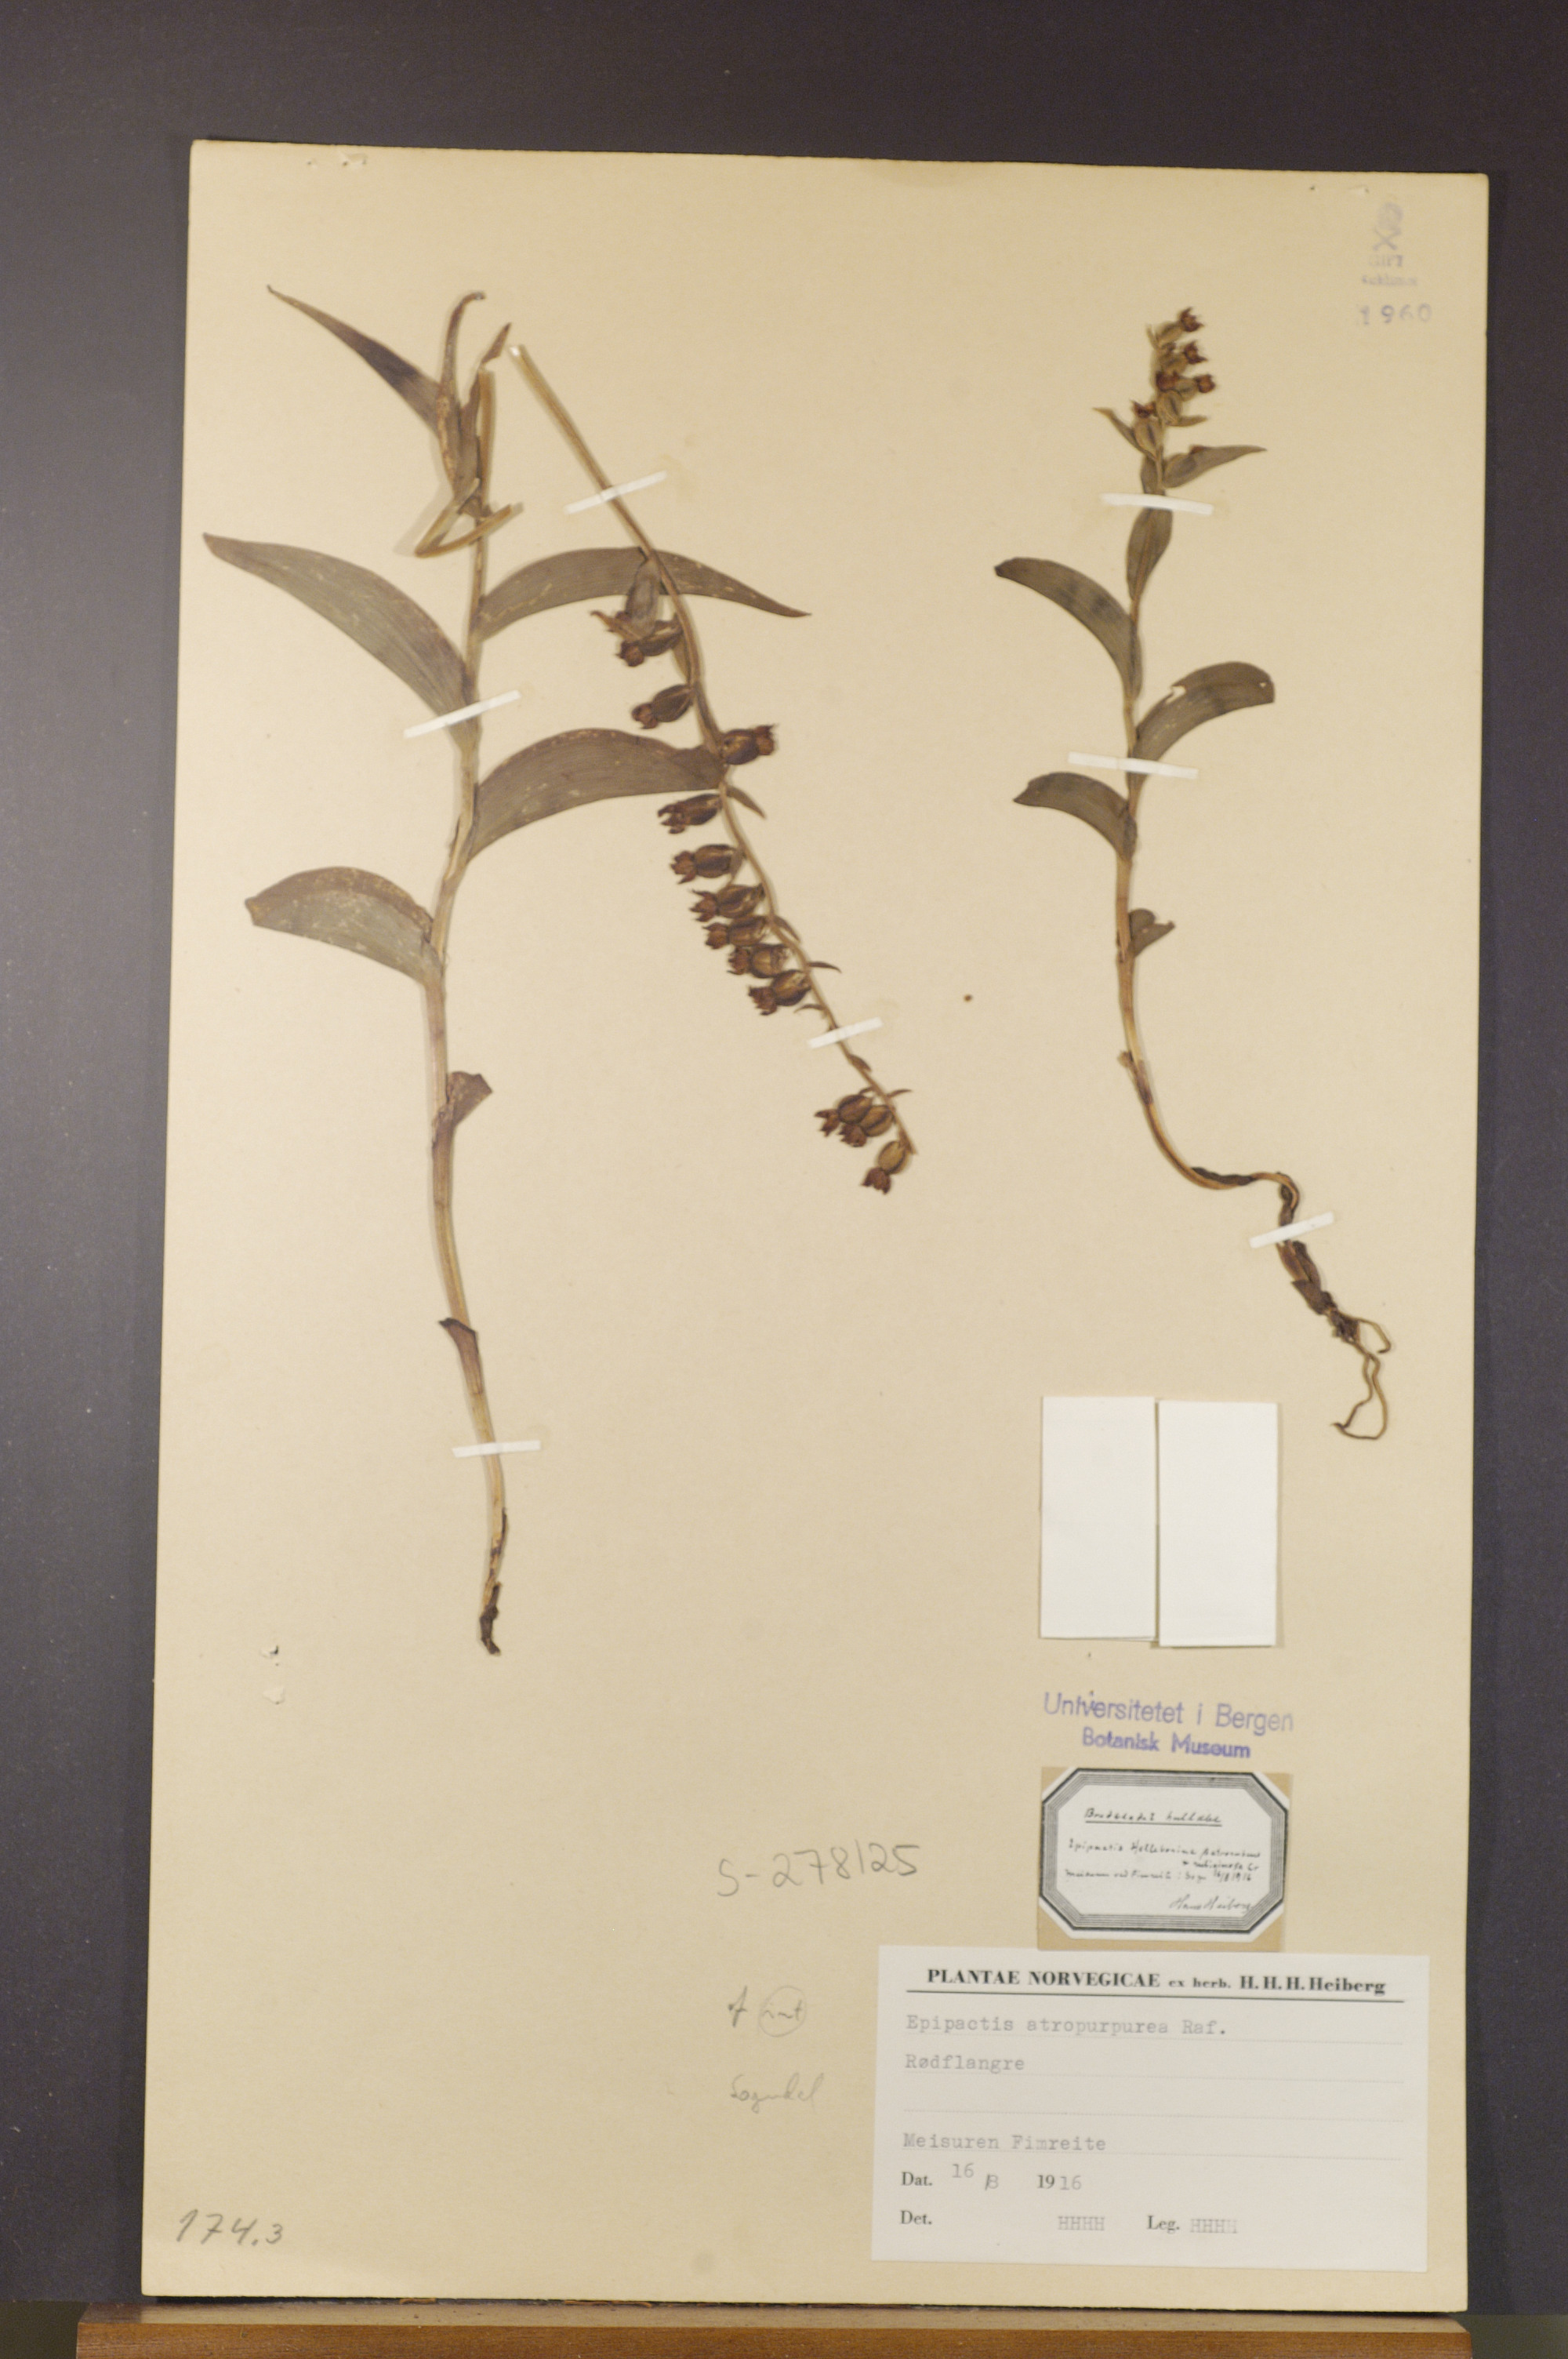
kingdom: Plantae
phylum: Tracheophyta
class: Liliopsida
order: Asparagales
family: Orchidaceae
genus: Epipactis
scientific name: Epipactis atrorubens
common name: Dark-red helleborine
